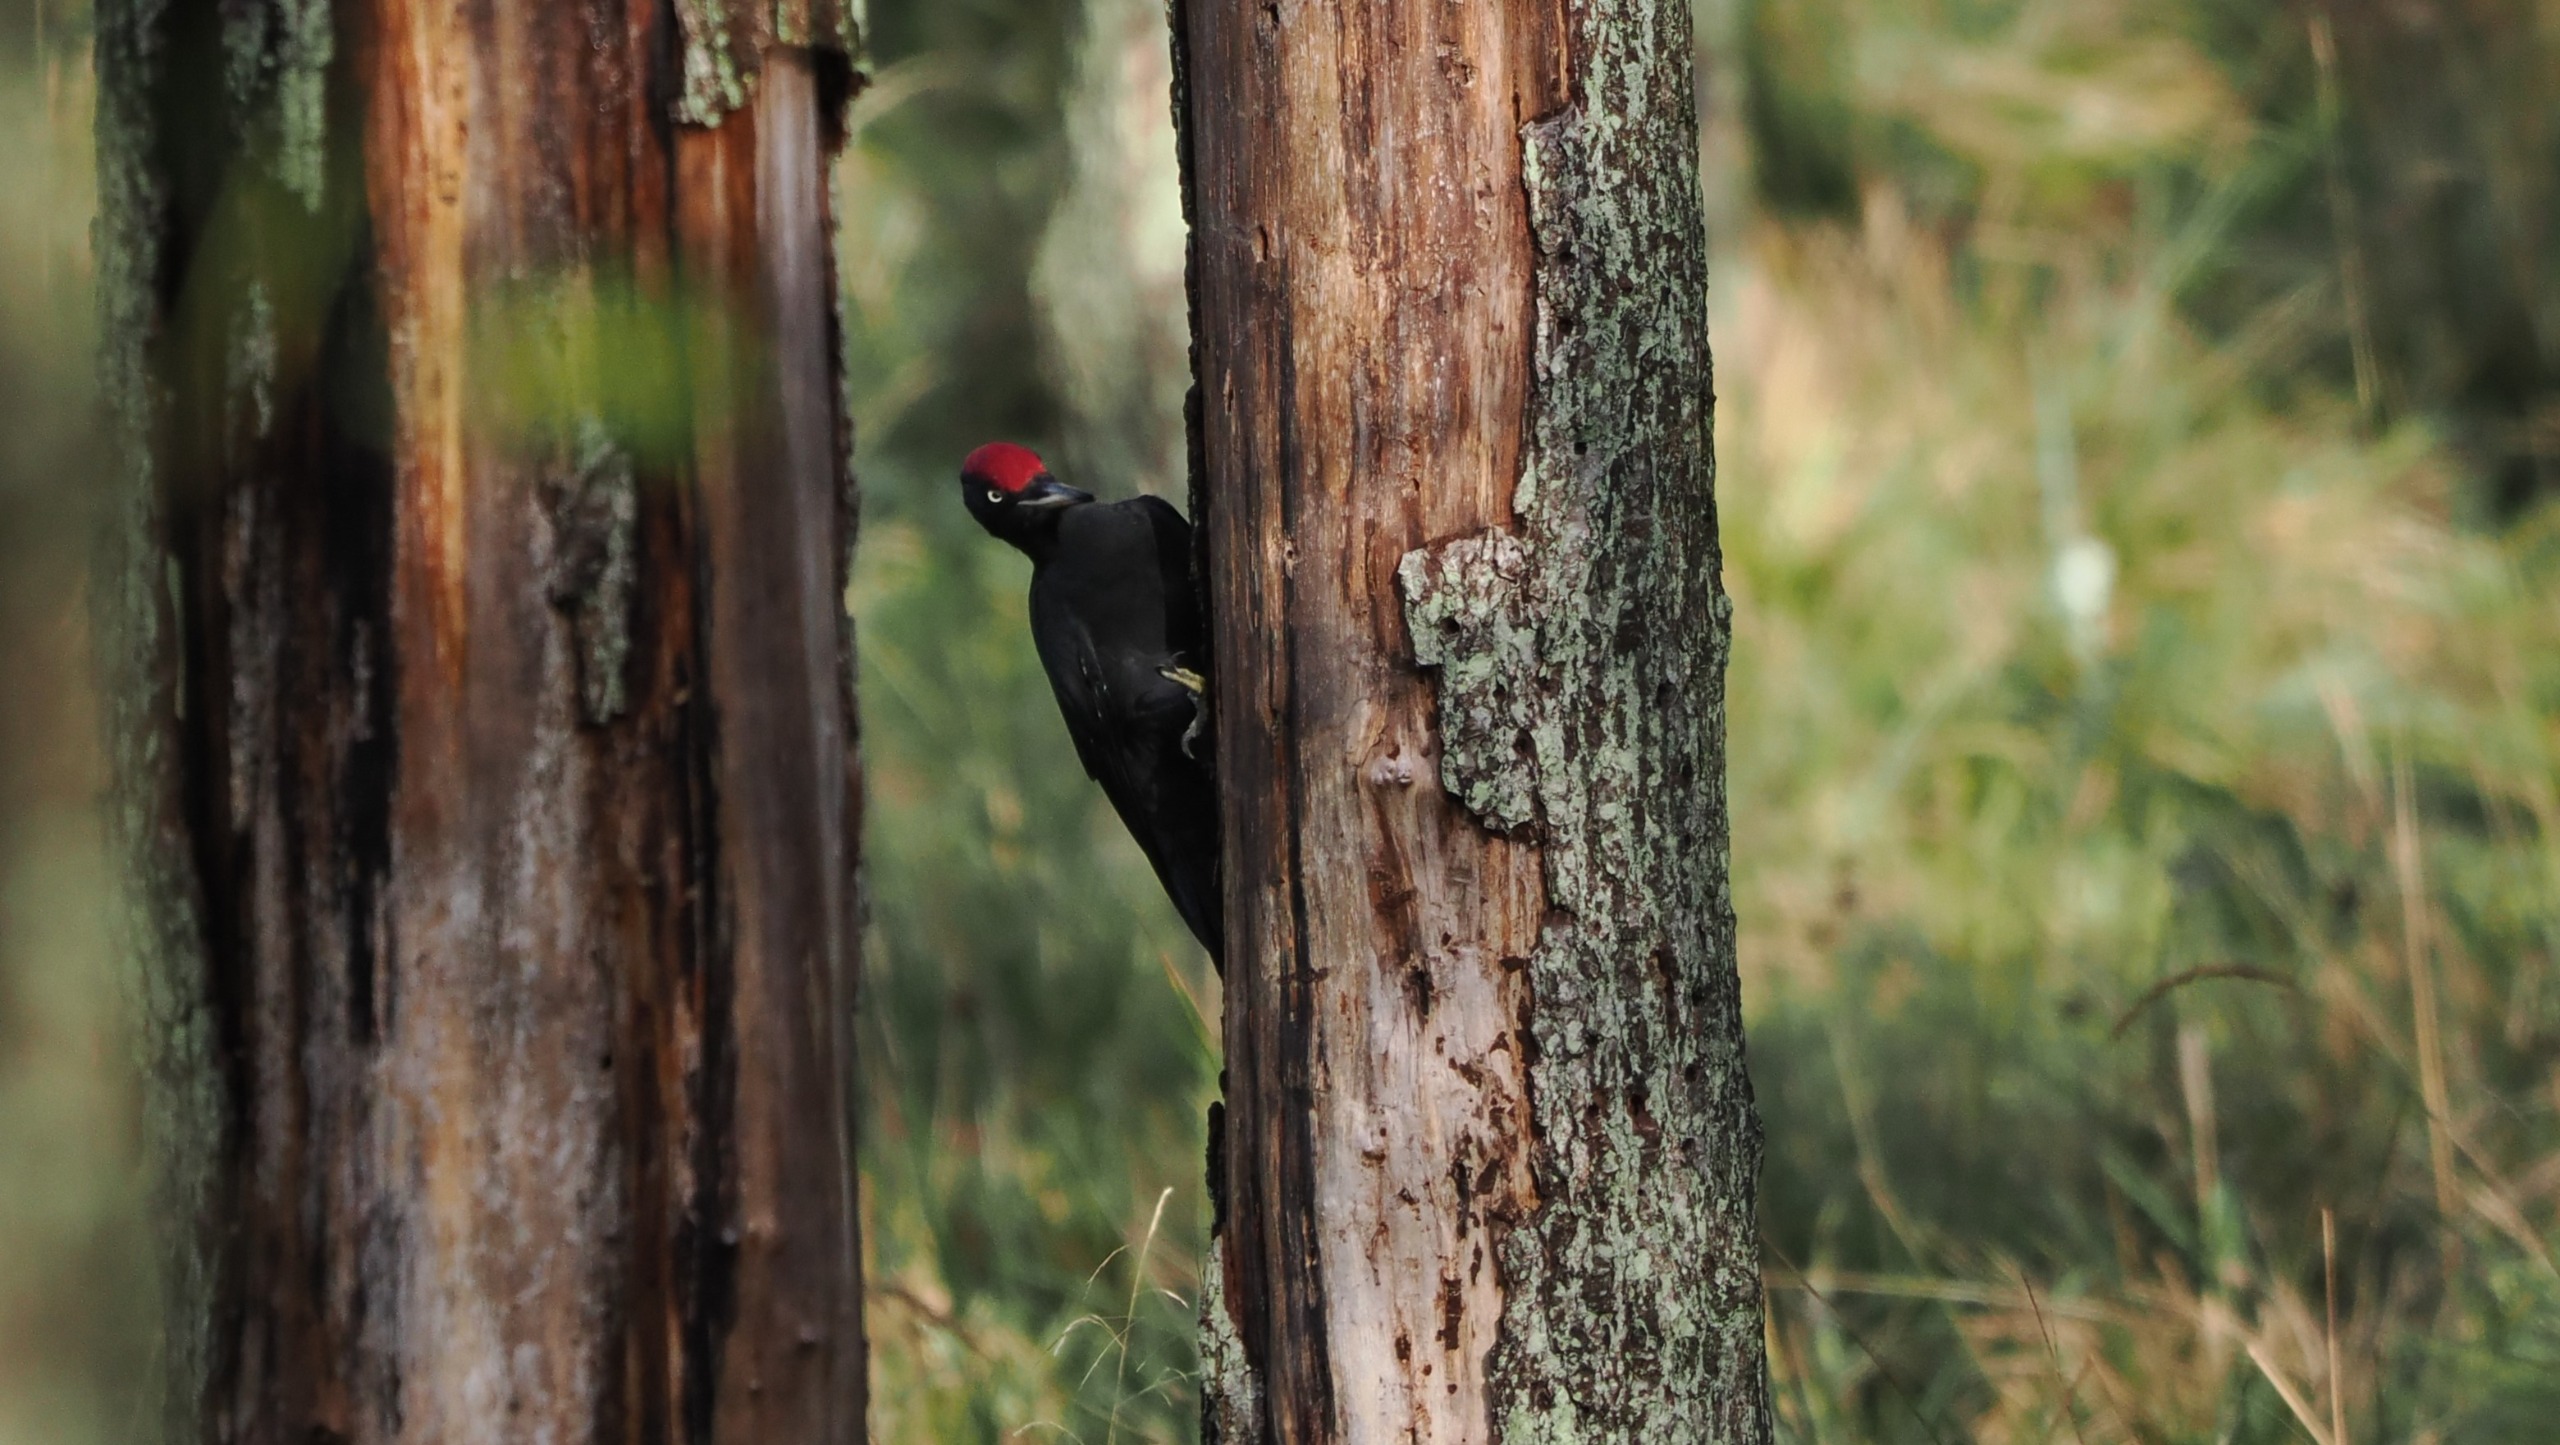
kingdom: Animalia
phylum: Chordata
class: Aves
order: Piciformes
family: Picidae
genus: Dryocopus
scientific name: Dryocopus martius
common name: Sortspætte
